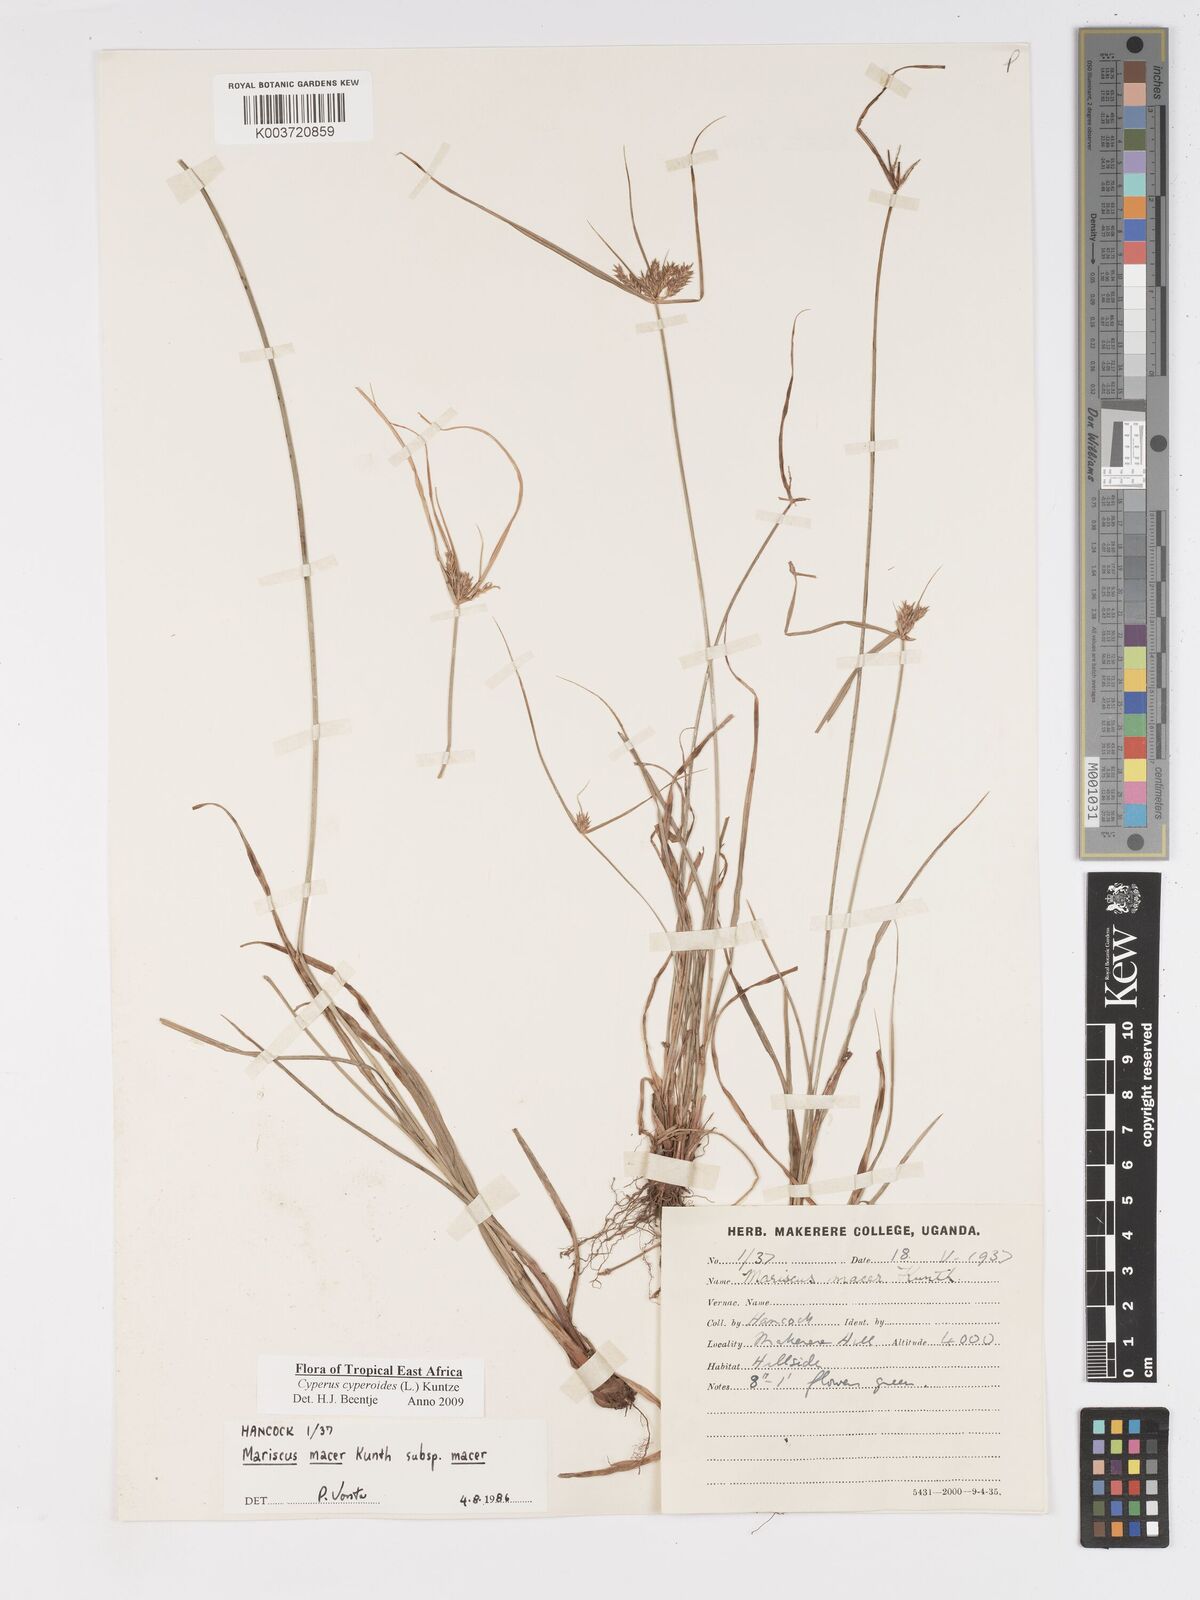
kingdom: Plantae
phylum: Tracheophyta
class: Liliopsida
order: Poales
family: Cyperaceae
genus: Cyperus
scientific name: Cyperus pseudoflavus
